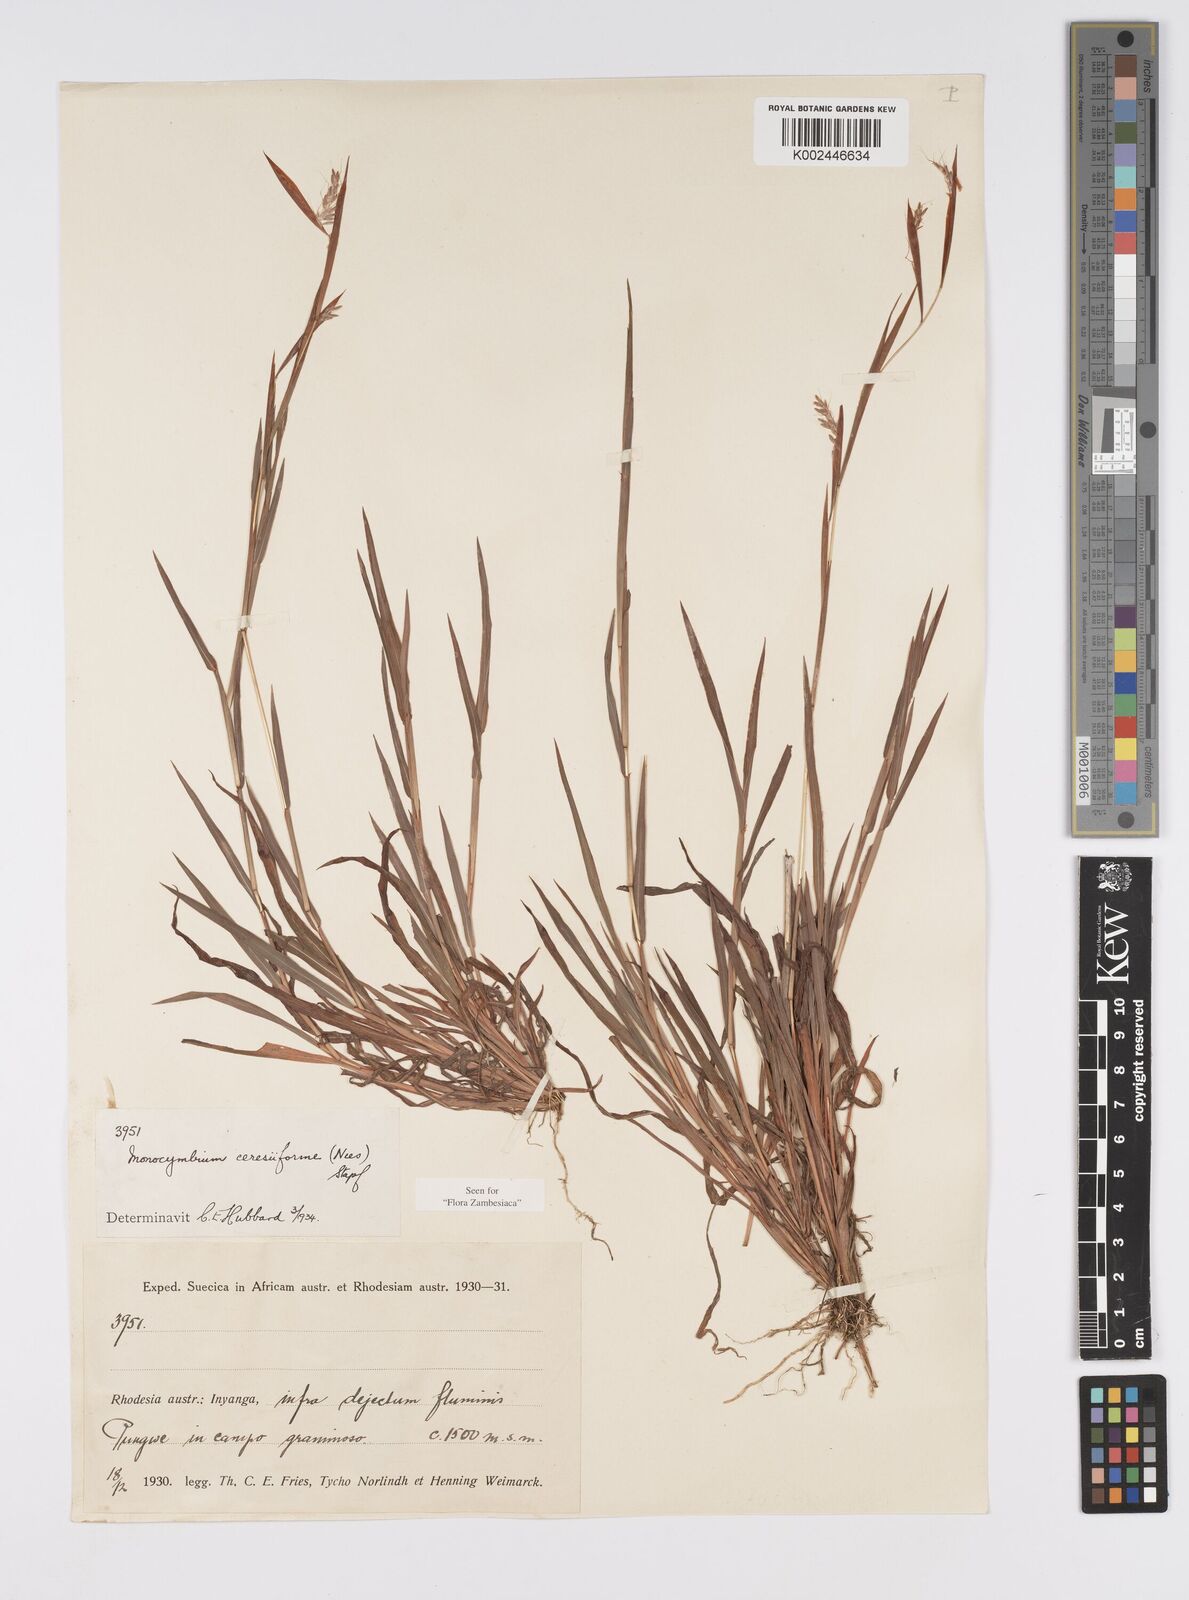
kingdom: Plantae
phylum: Tracheophyta
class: Liliopsida
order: Poales
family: Poaceae
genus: Monocymbium
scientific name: Monocymbium ceresiiforme
